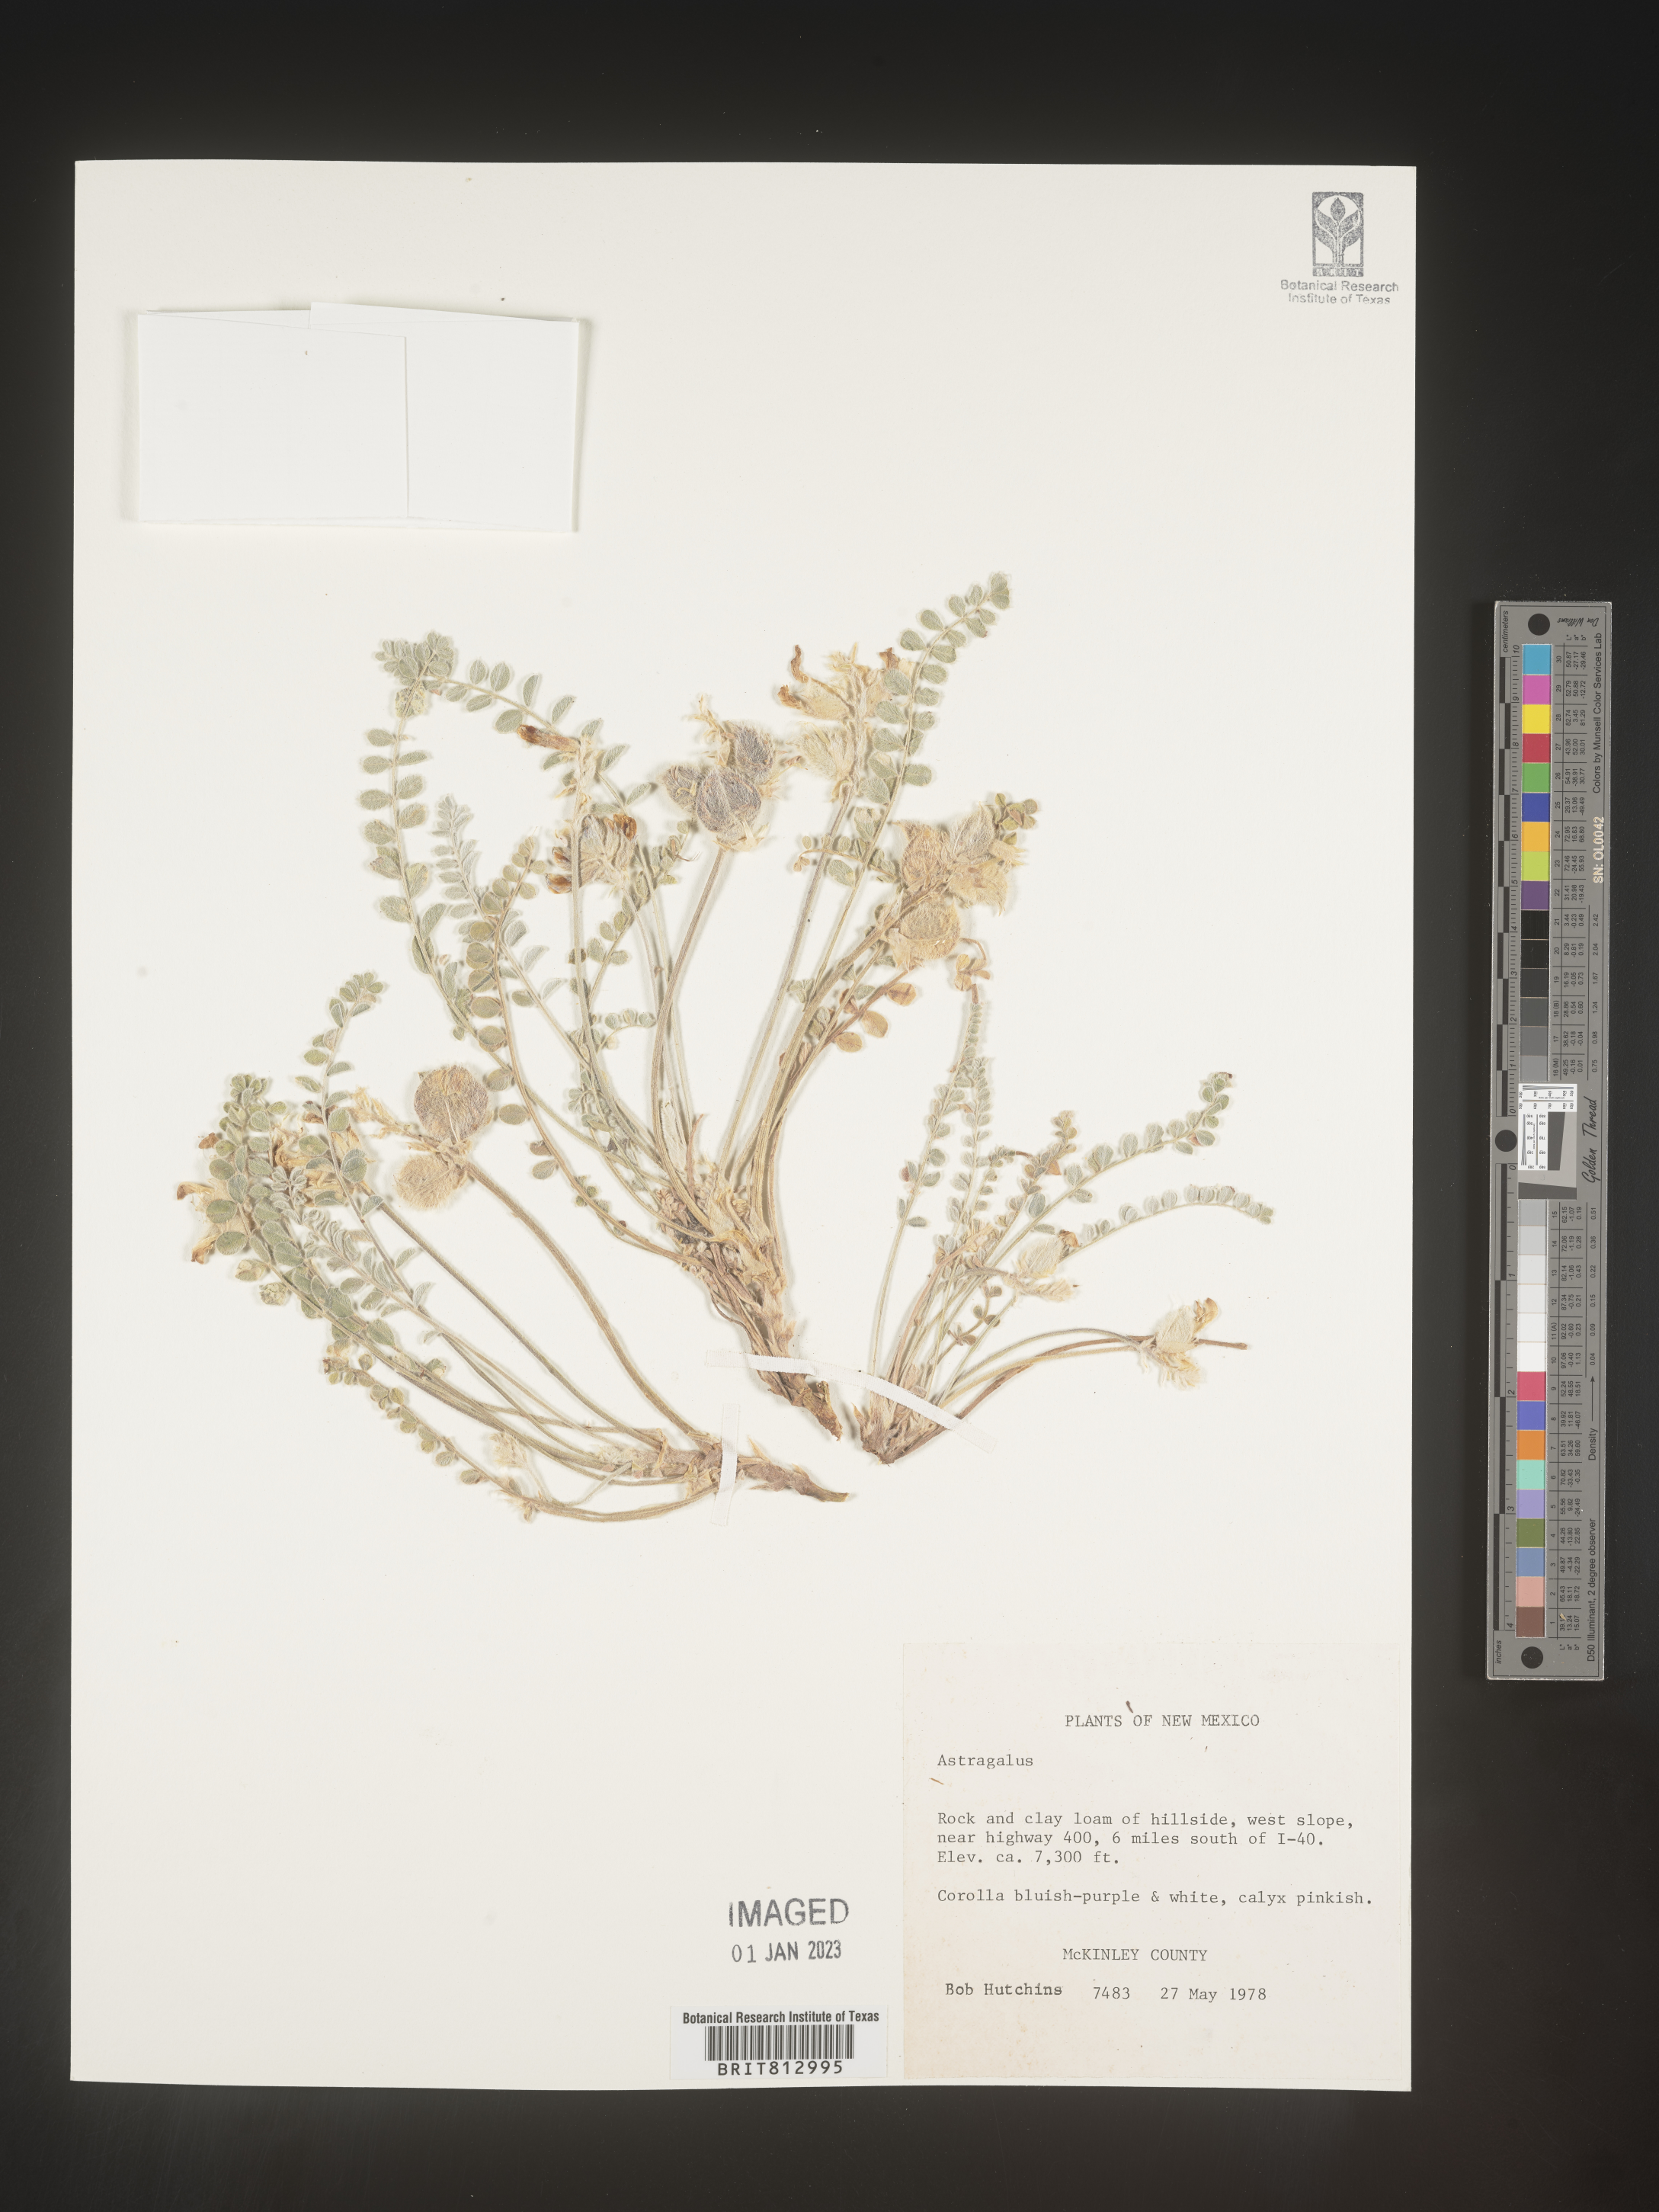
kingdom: Plantae
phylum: Tracheophyta
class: Magnoliopsida
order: Fabales
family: Fabaceae
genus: Astragalus
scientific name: Astragalus
